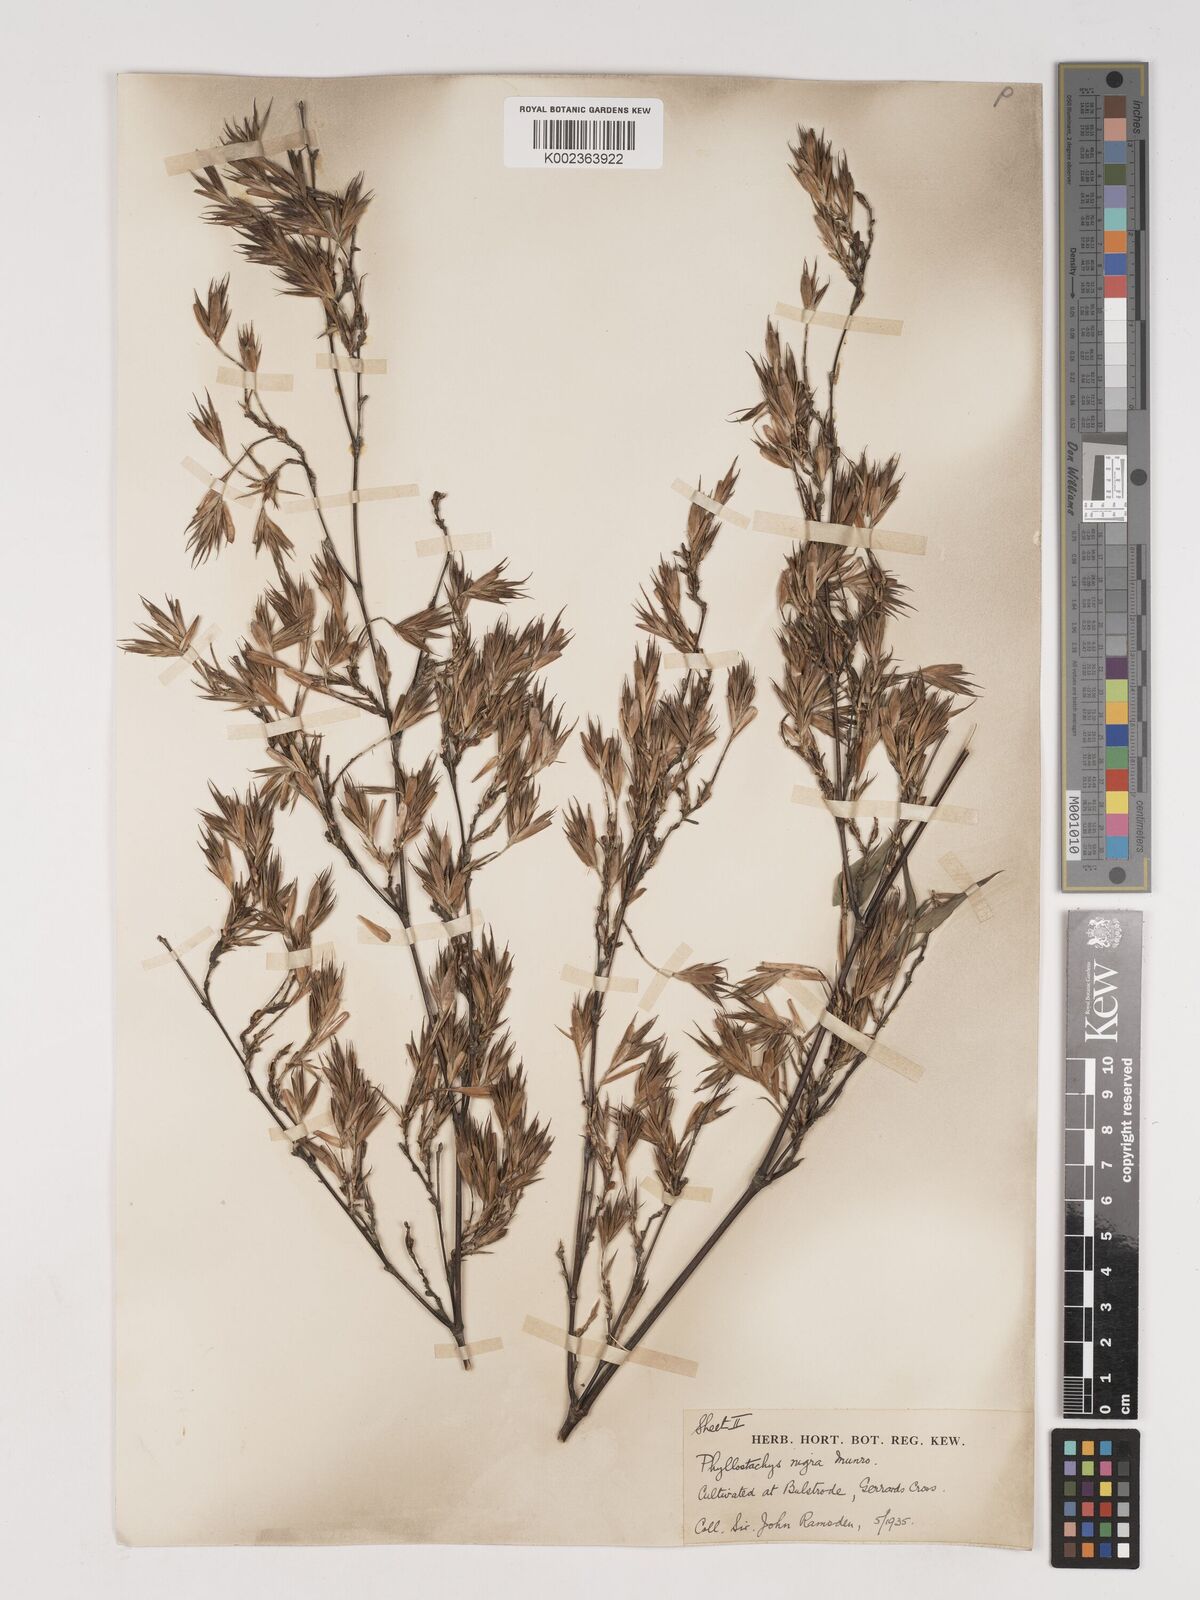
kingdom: Plantae
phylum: Tracheophyta
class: Liliopsida
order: Poales
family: Poaceae
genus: Phyllostachys
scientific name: Phyllostachys nigra
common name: Black bamboo
